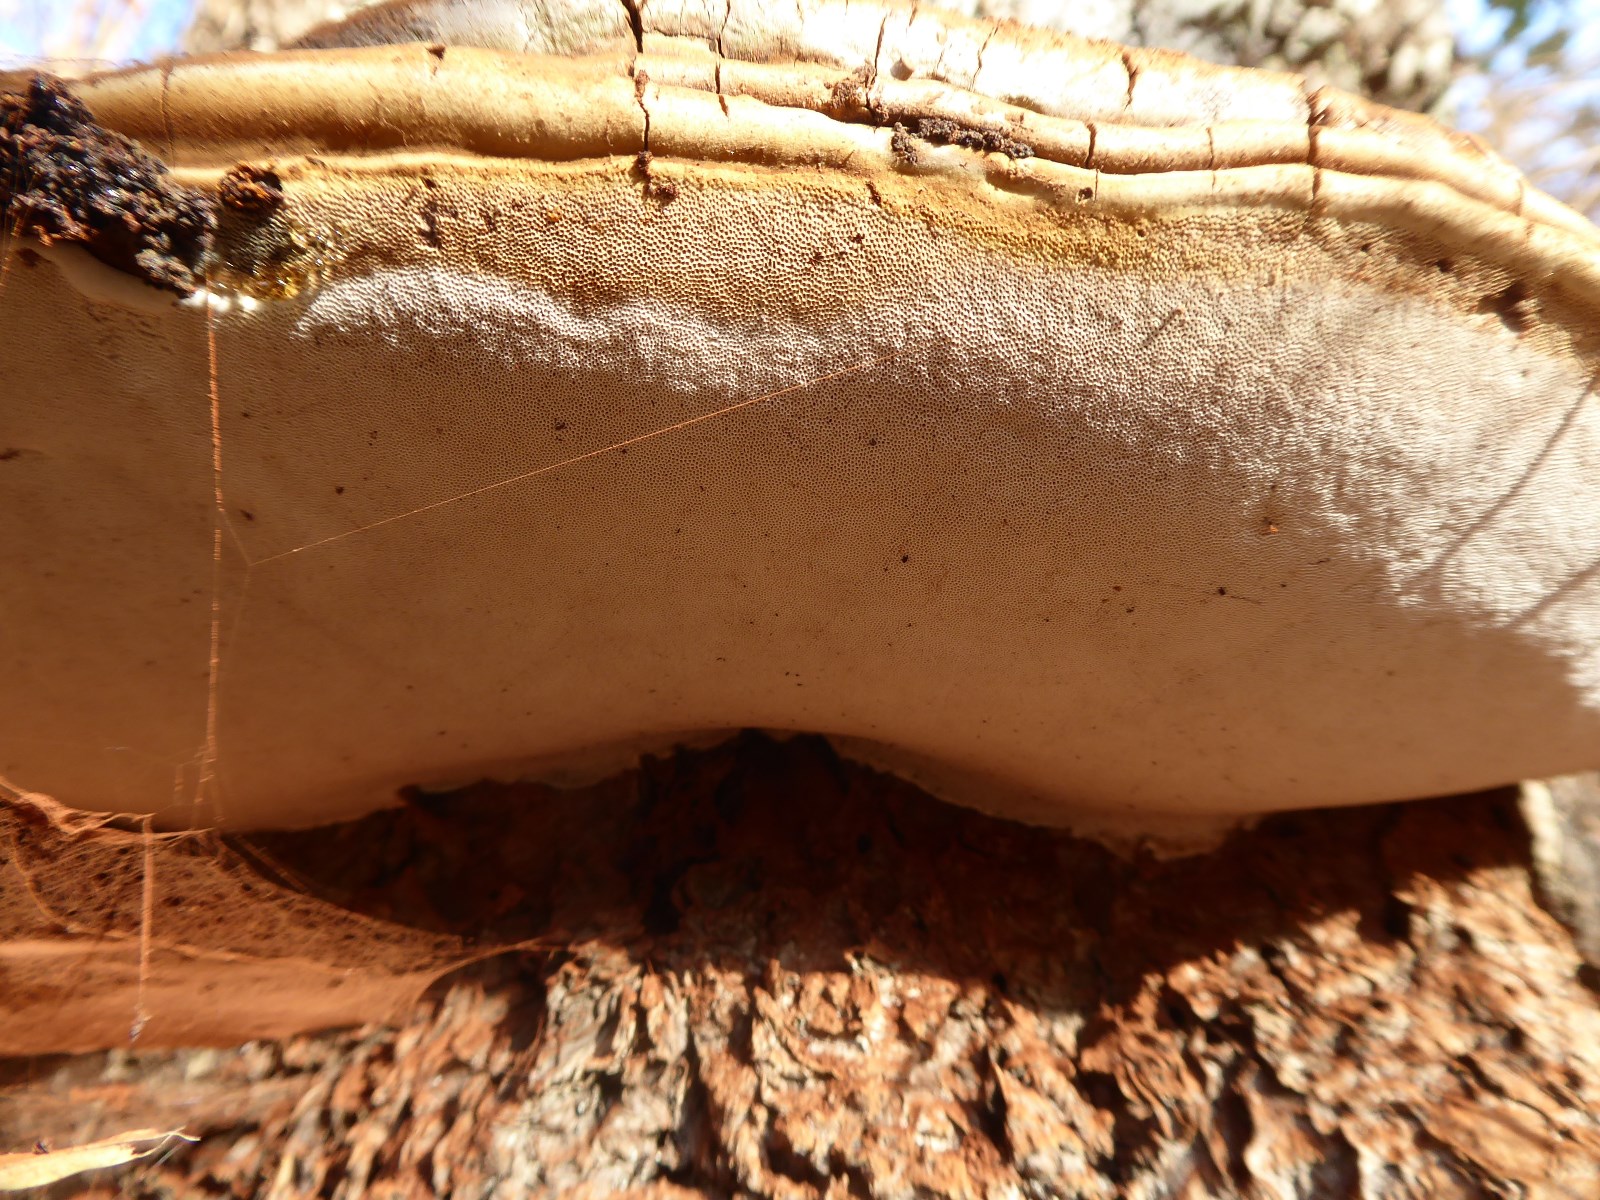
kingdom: Fungi
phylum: Basidiomycota
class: Agaricomycetes
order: Polyporales
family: Polyporaceae
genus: Ganoderma
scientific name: Ganoderma adspersum
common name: grov lakporesvamp
